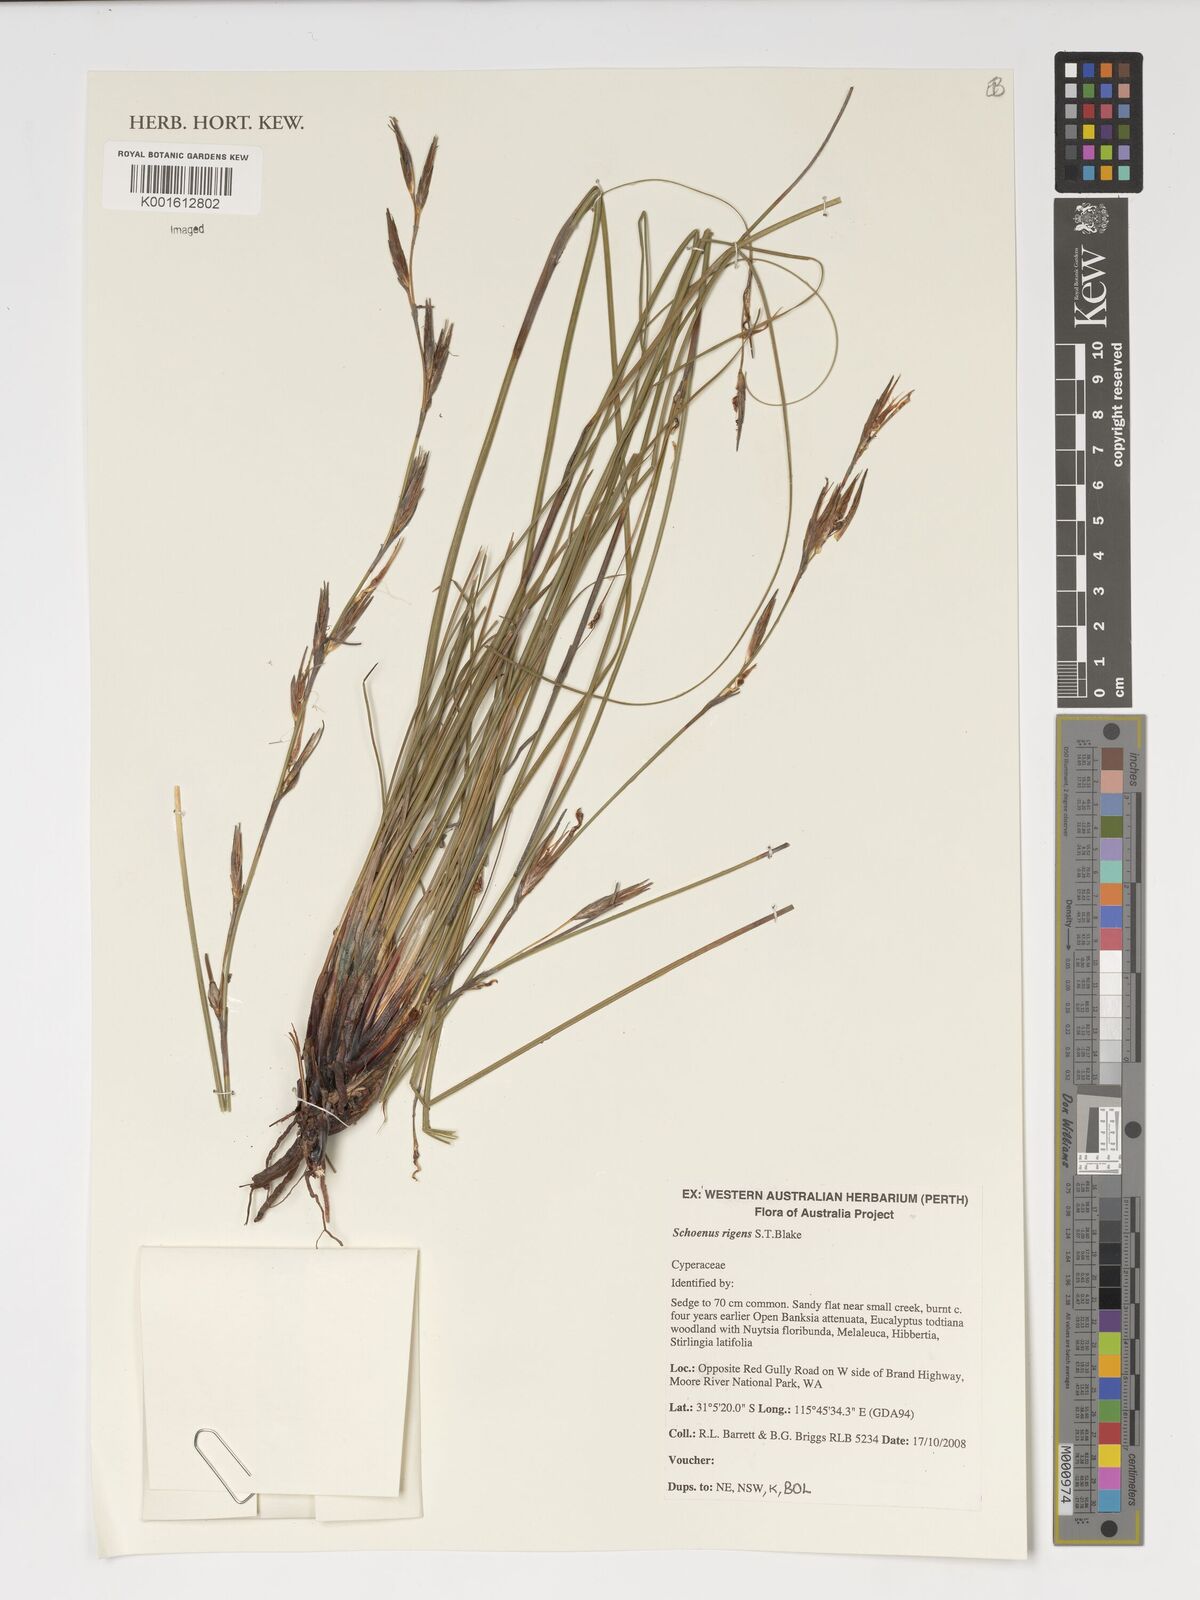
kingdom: Plantae
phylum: Tracheophyta
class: Liliopsida
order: Poales
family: Cyperaceae
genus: Schoenus
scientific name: Schoenus rigens
